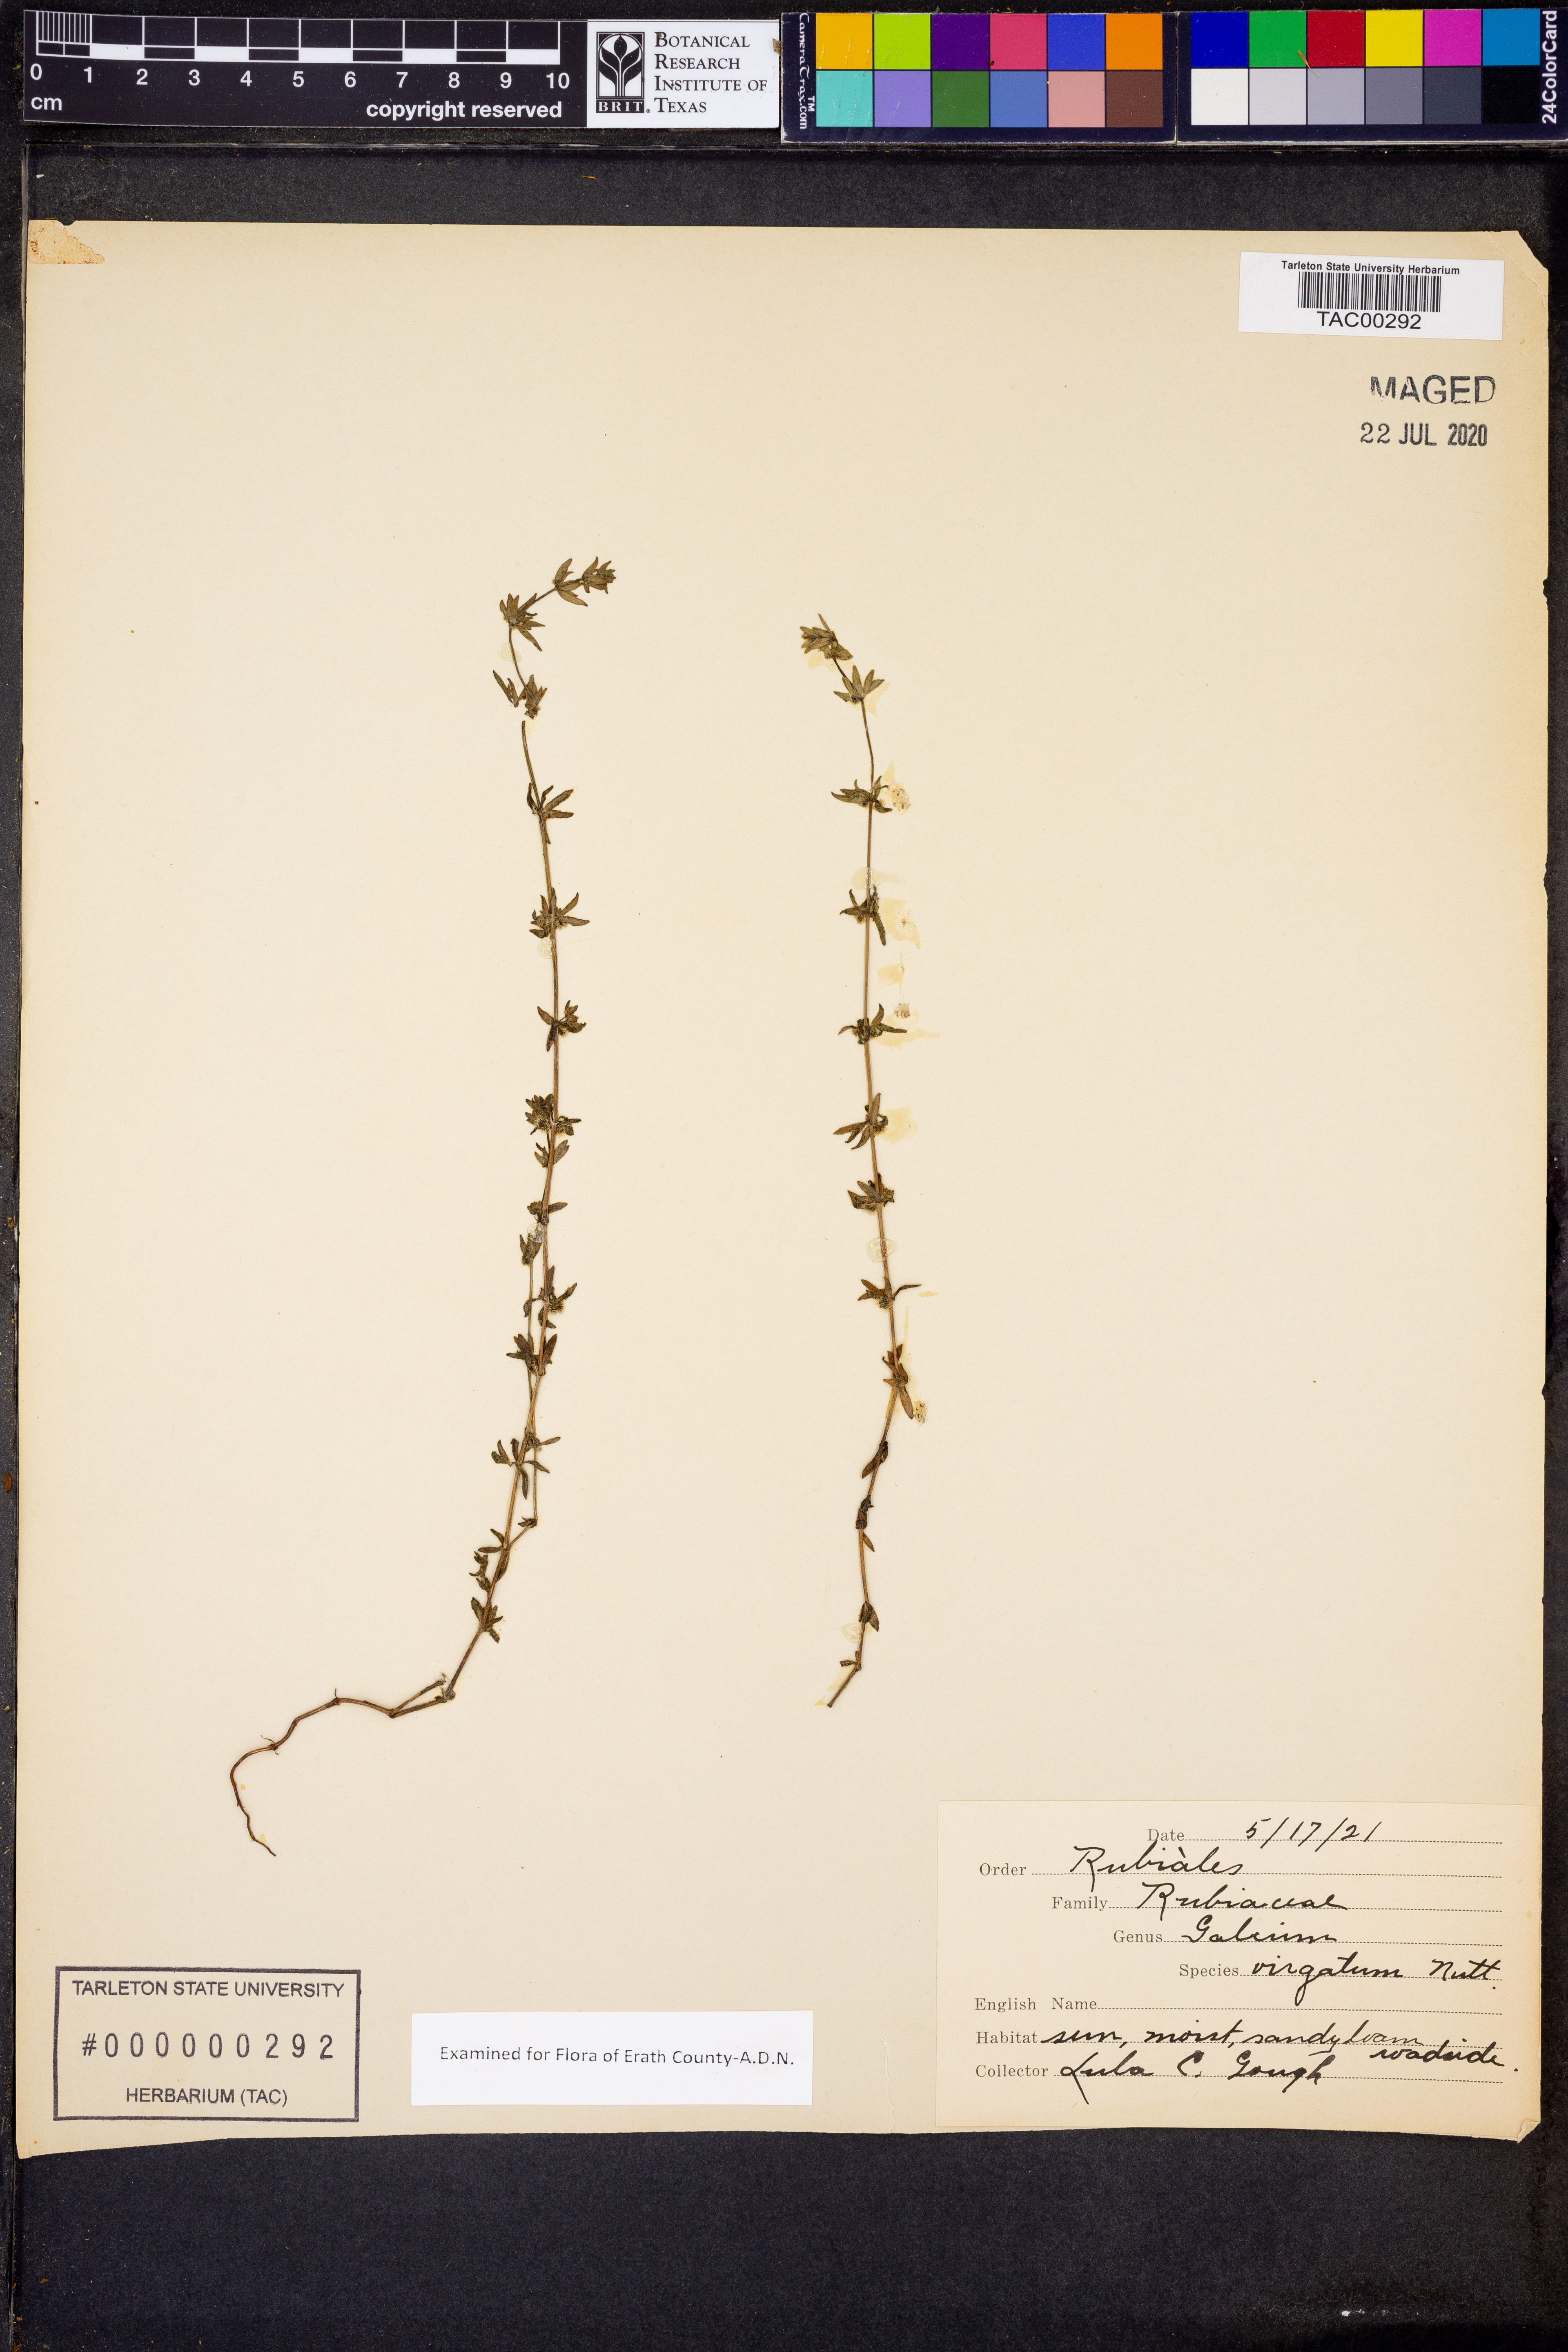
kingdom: Plantae
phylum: Tracheophyta
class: Magnoliopsida
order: Gentianales
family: Rubiaceae
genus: Galium
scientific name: Galium virgatum
